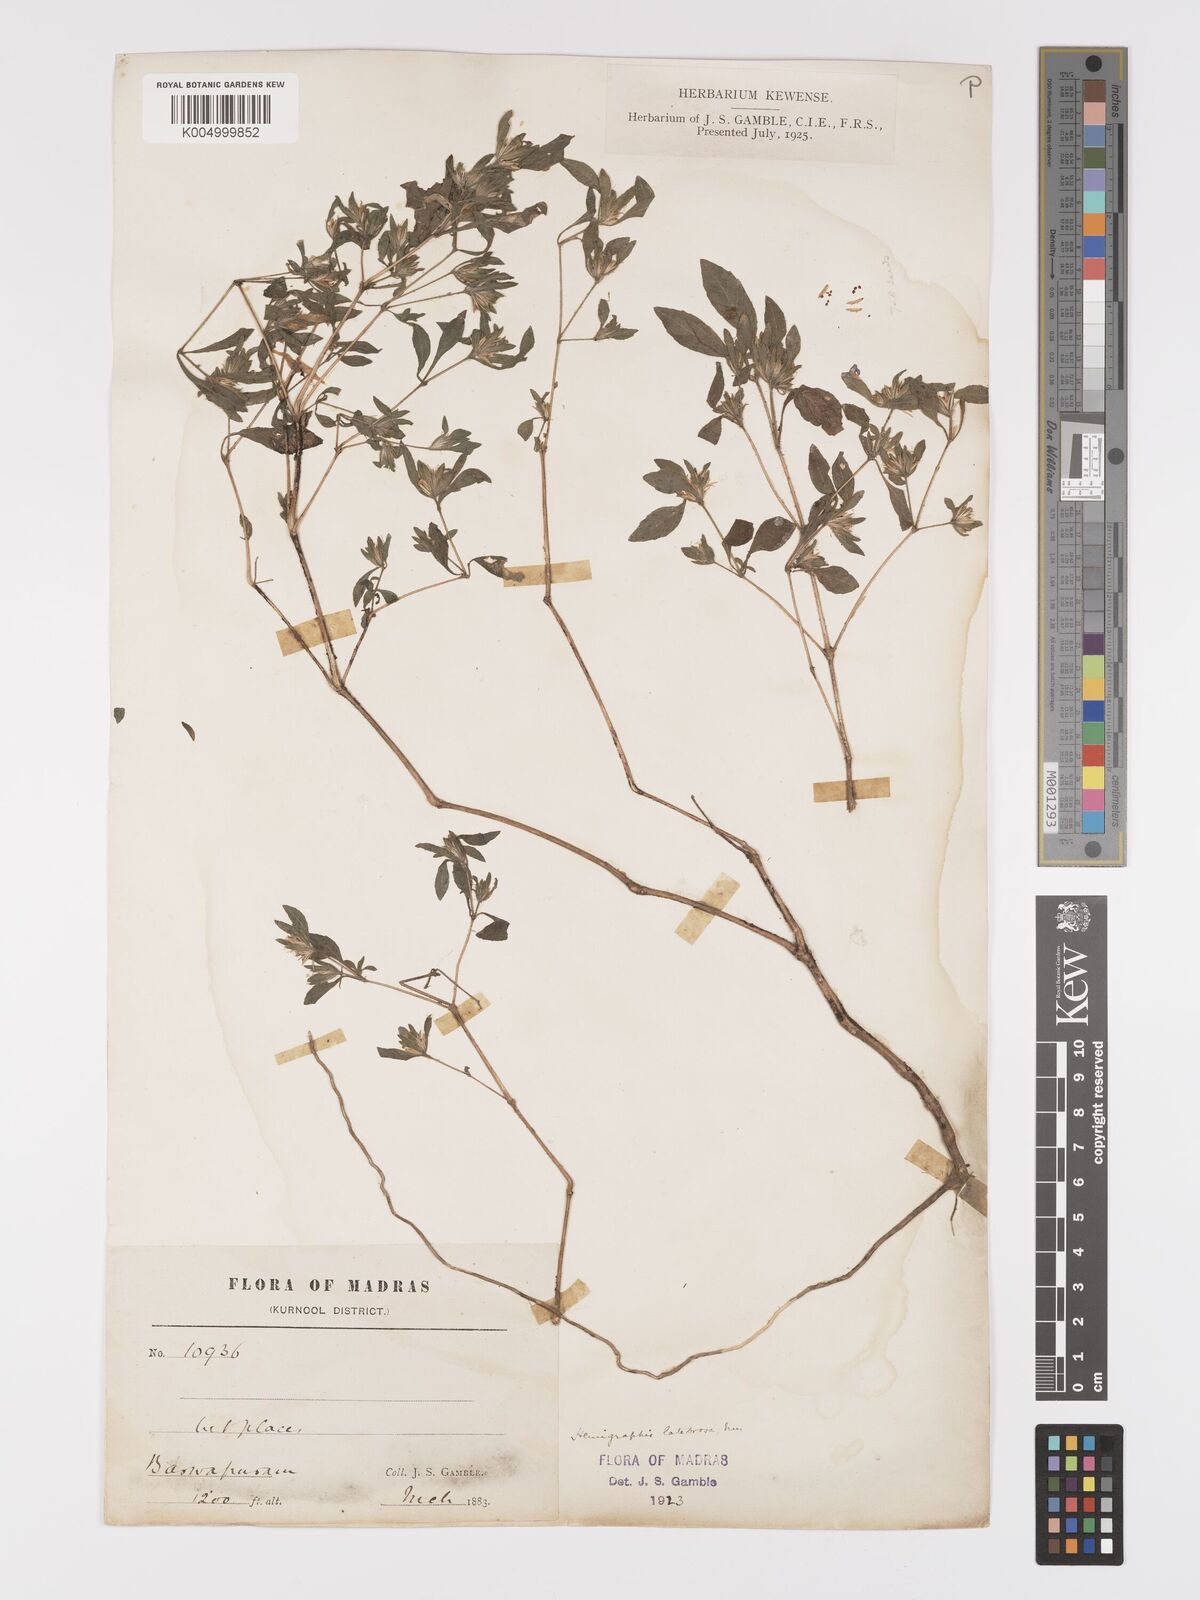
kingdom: Plantae
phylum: Tracheophyta
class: Magnoliopsida
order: Lamiales
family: Acanthaceae
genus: Strobilanthes
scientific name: Strobilanthes pavala
